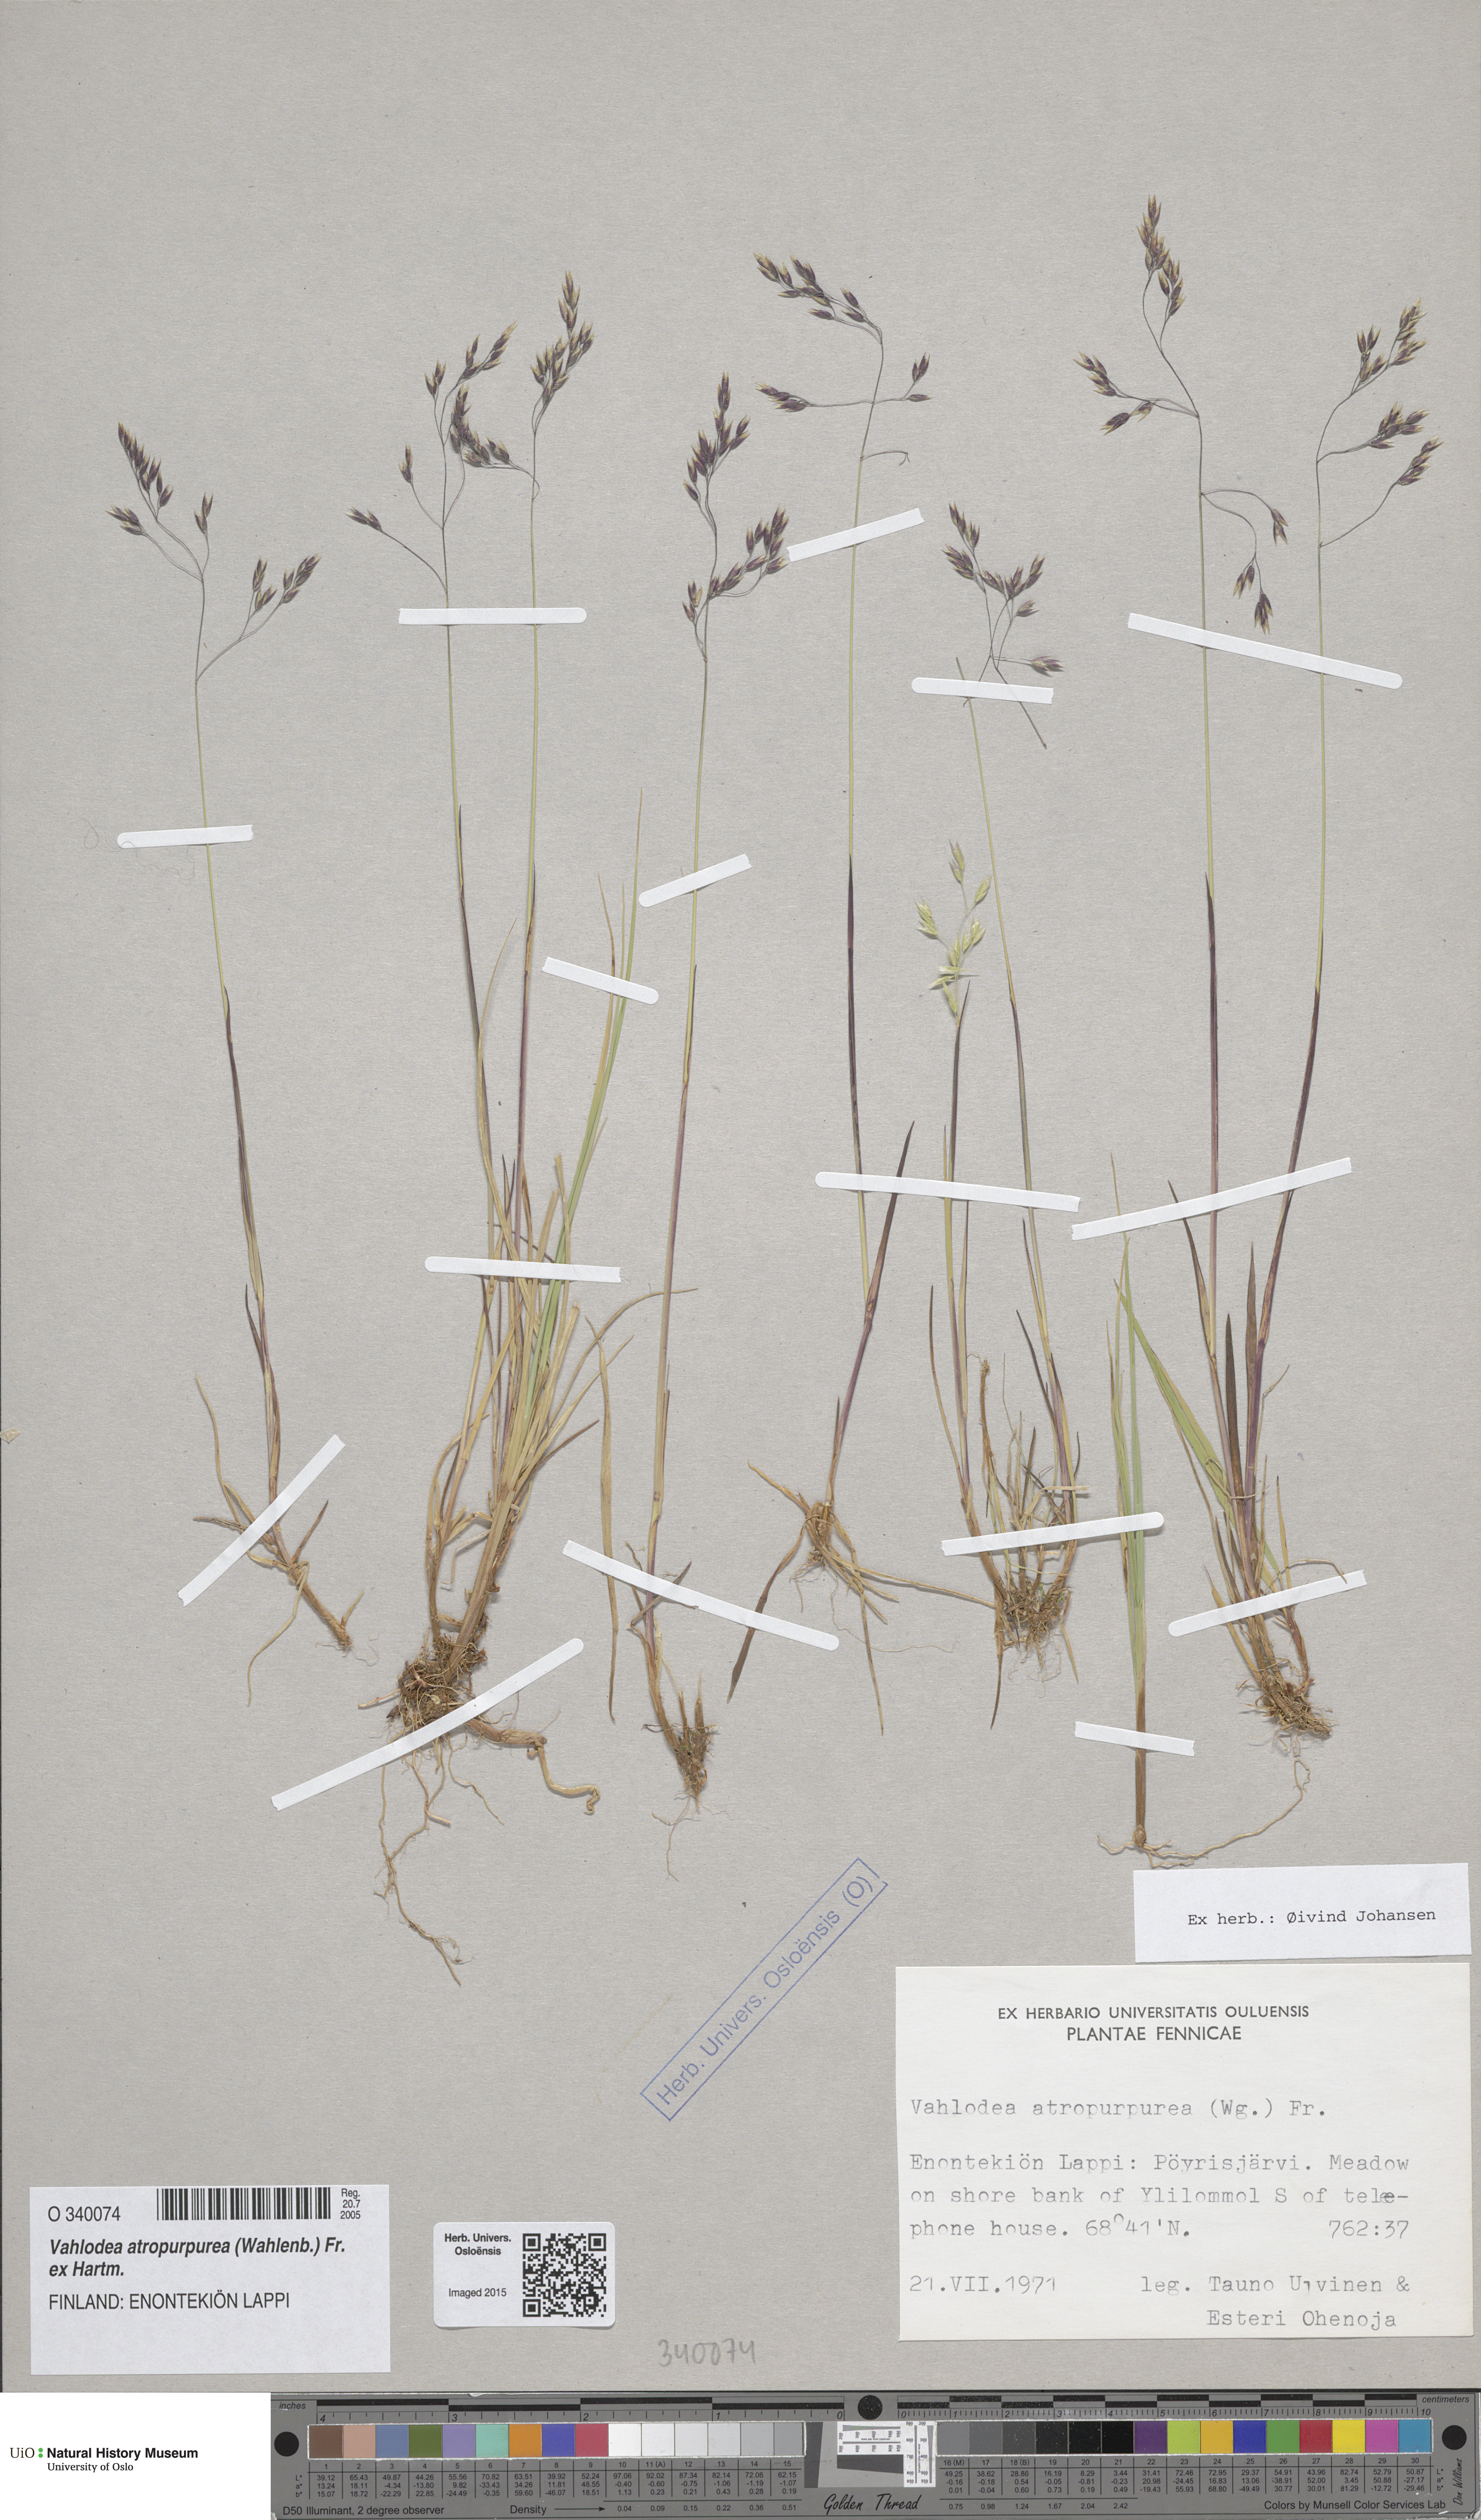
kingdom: Plantae
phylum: Tracheophyta
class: Liliopsida
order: Poales
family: Poaceae
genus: Vahlodea
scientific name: Vahlodea atropurpurea
